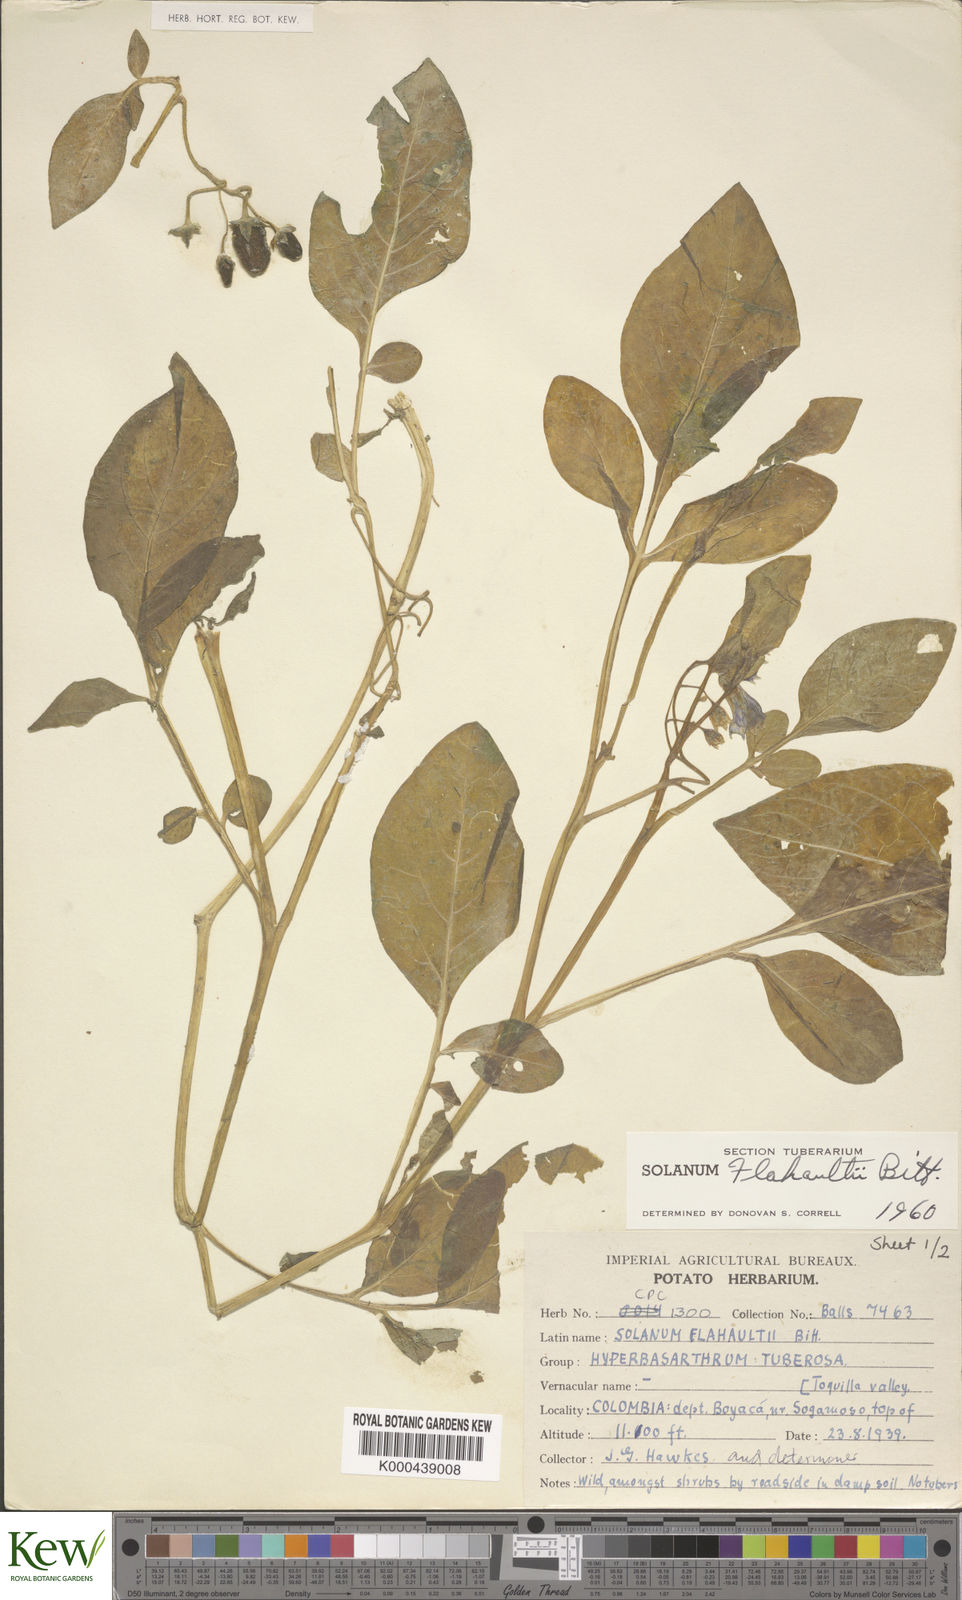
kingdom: Plantae
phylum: Tracheophyta
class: Magnoliopsida
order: Solanales
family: Solanaceae
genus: Solanum
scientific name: Solanum flahaultii
